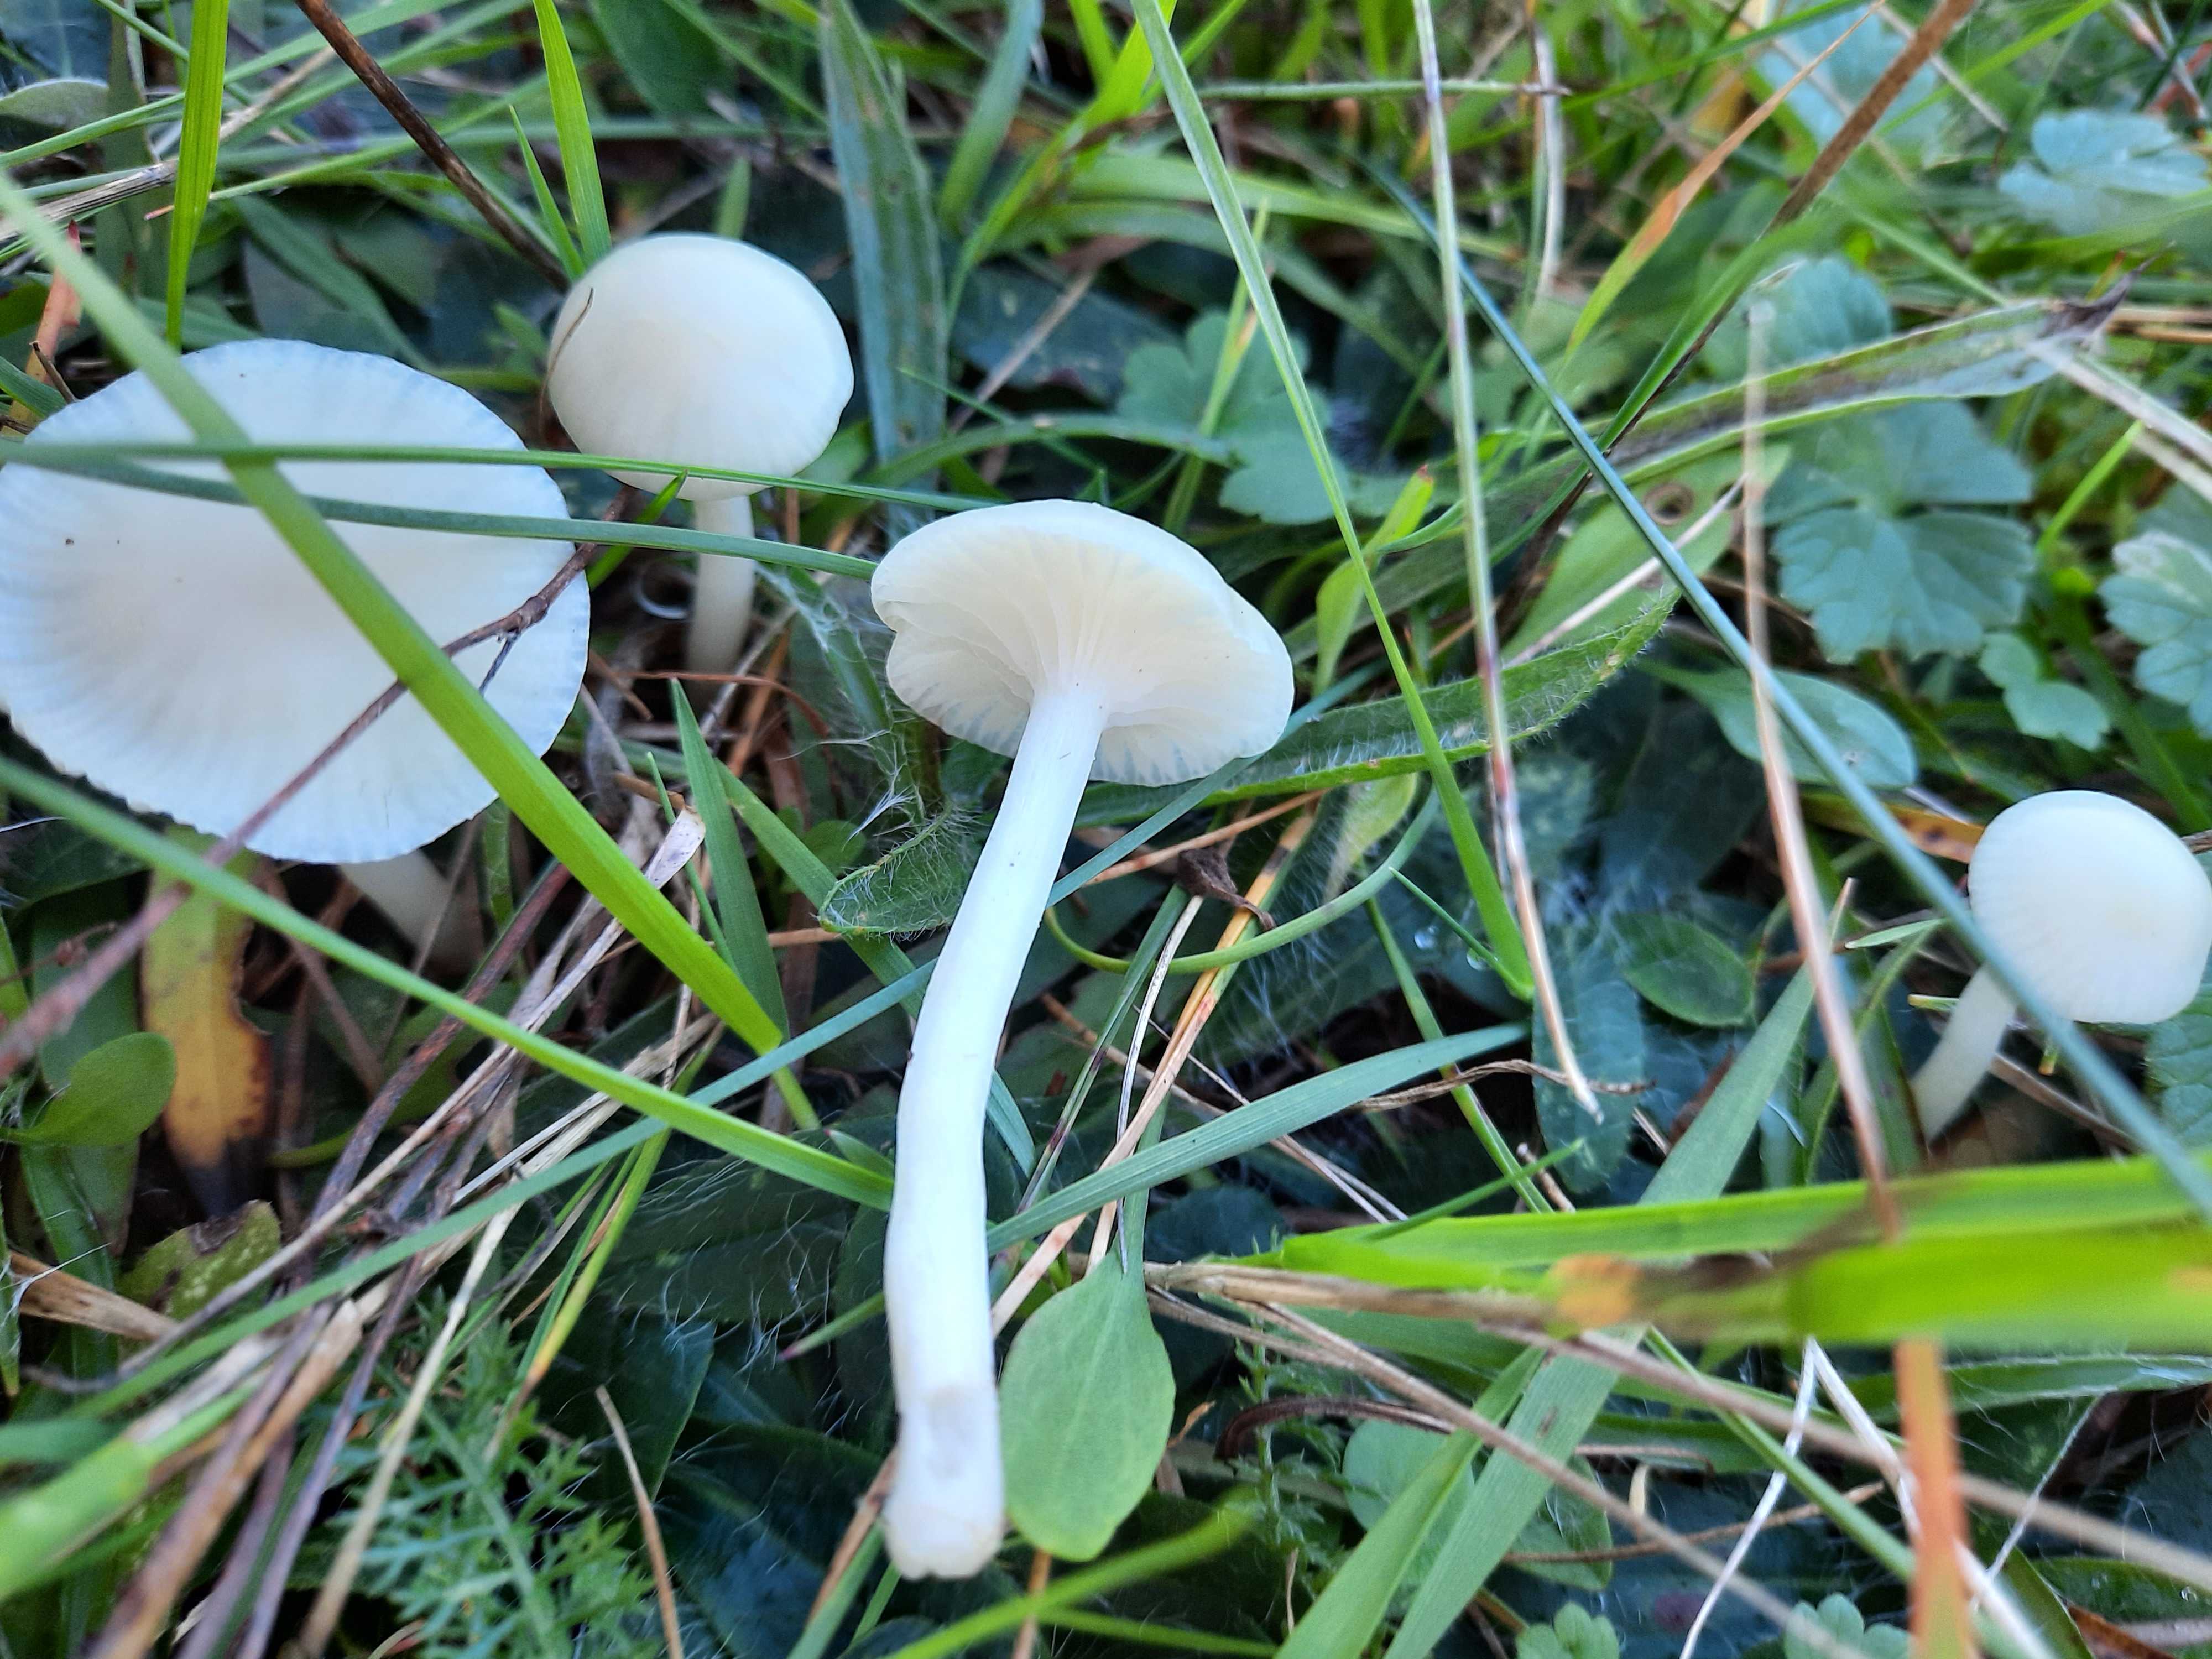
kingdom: Fungi
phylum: Basidiomycota
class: Agaricomycetes
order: Agaricales
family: Hygrophoraceae
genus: Cuphophyllus
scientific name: Cuphophyllus virgineus
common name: snehvid vokshat
